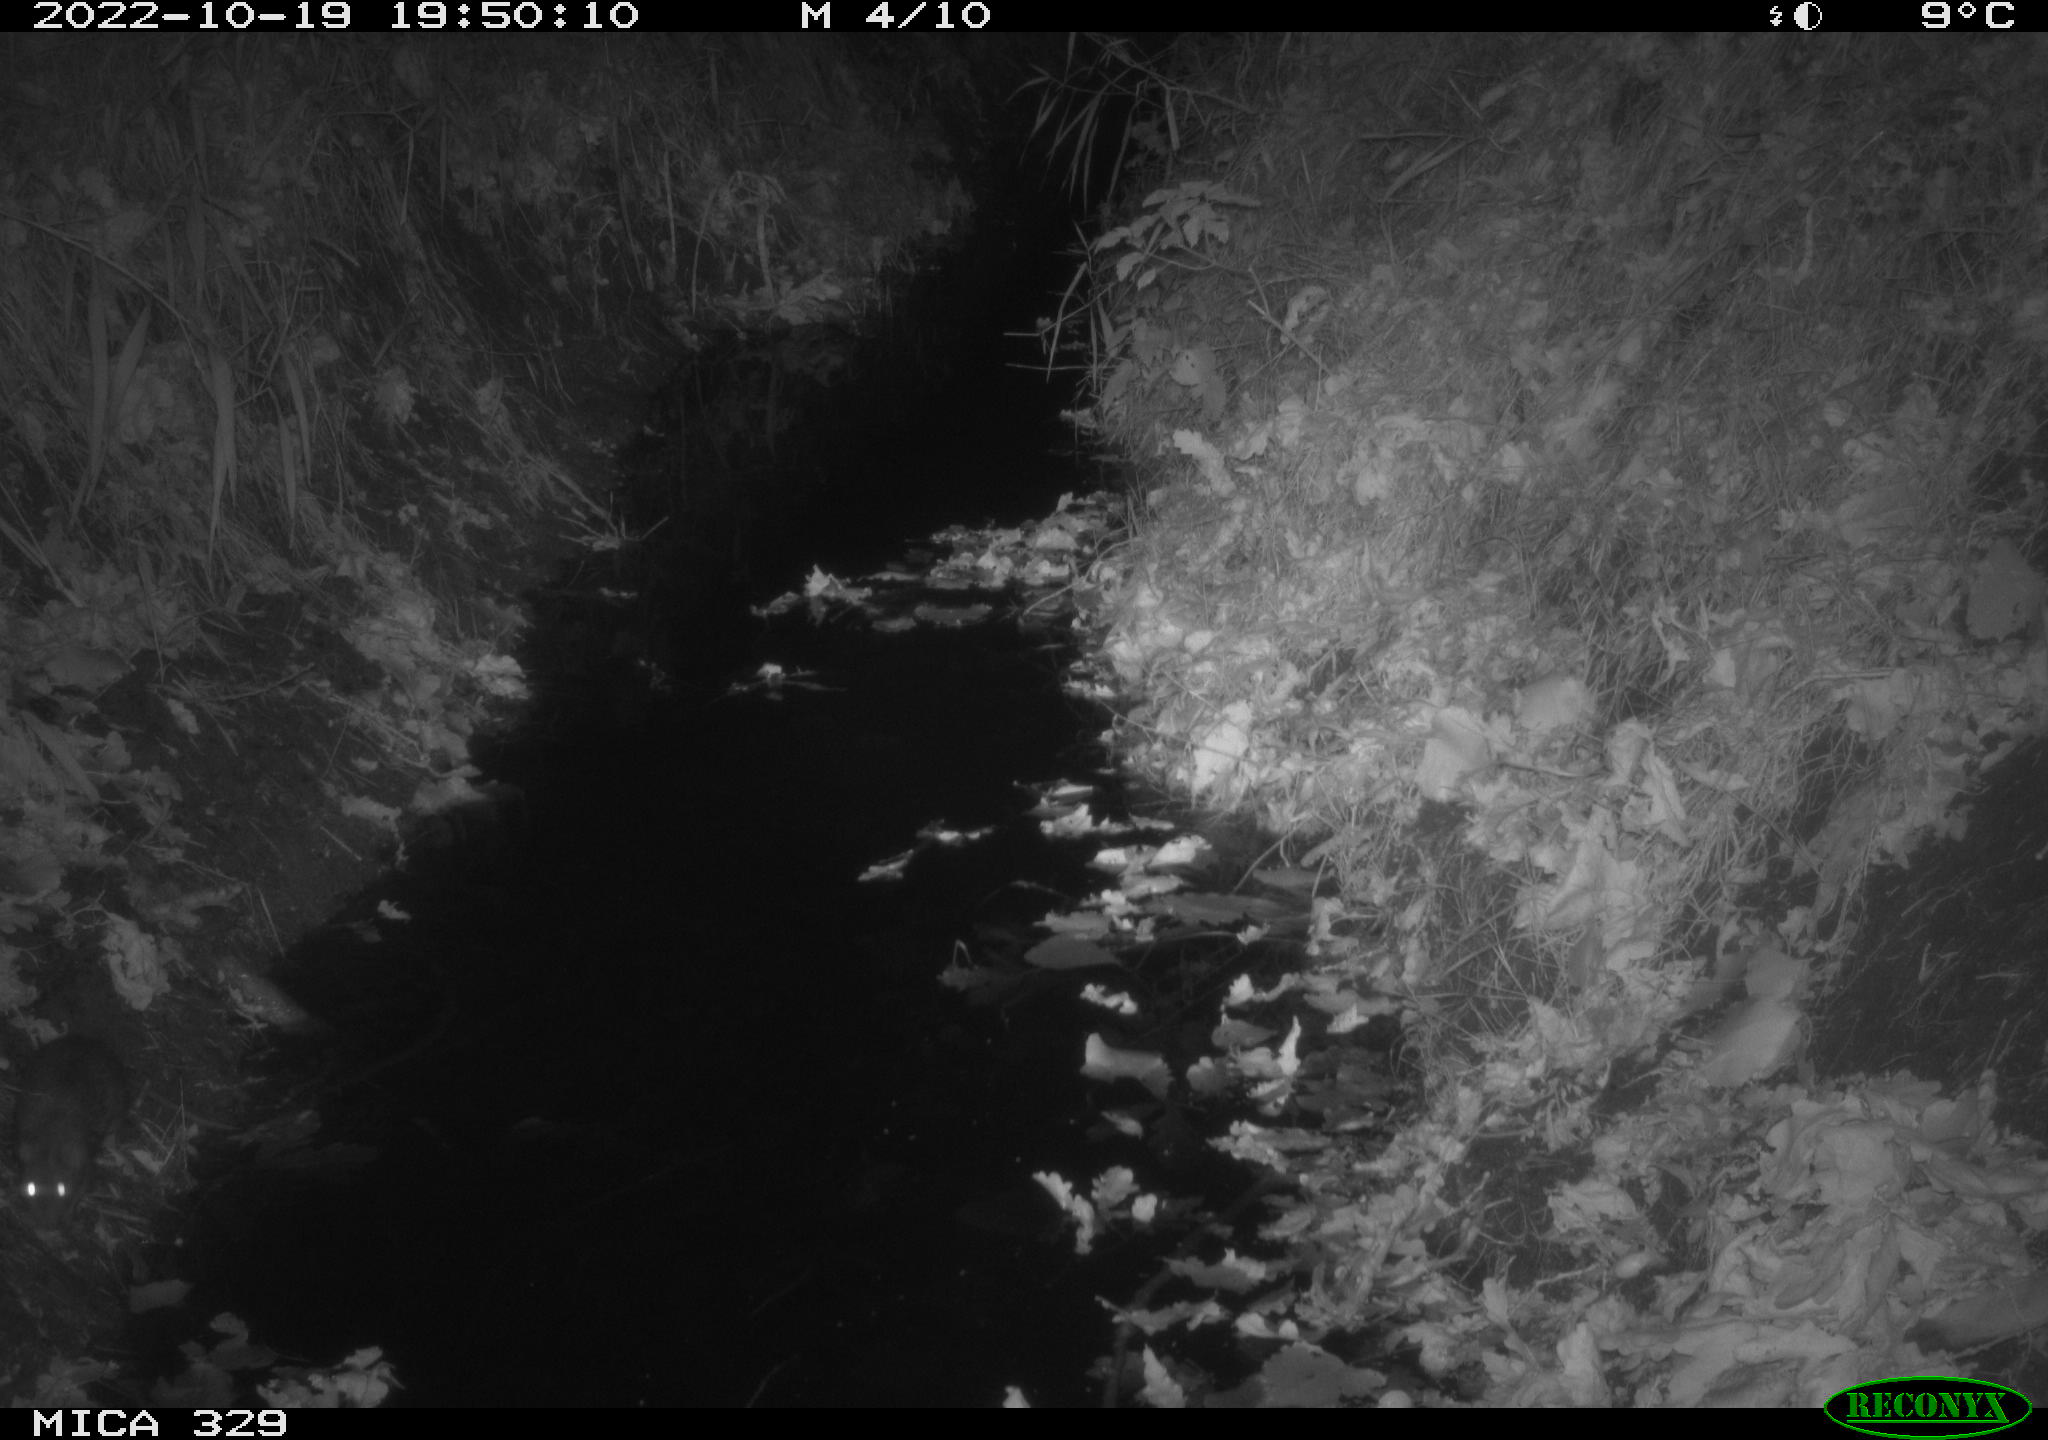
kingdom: Animalia
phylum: Chordata
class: Mammalia
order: Rodentia
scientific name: Rodentia
